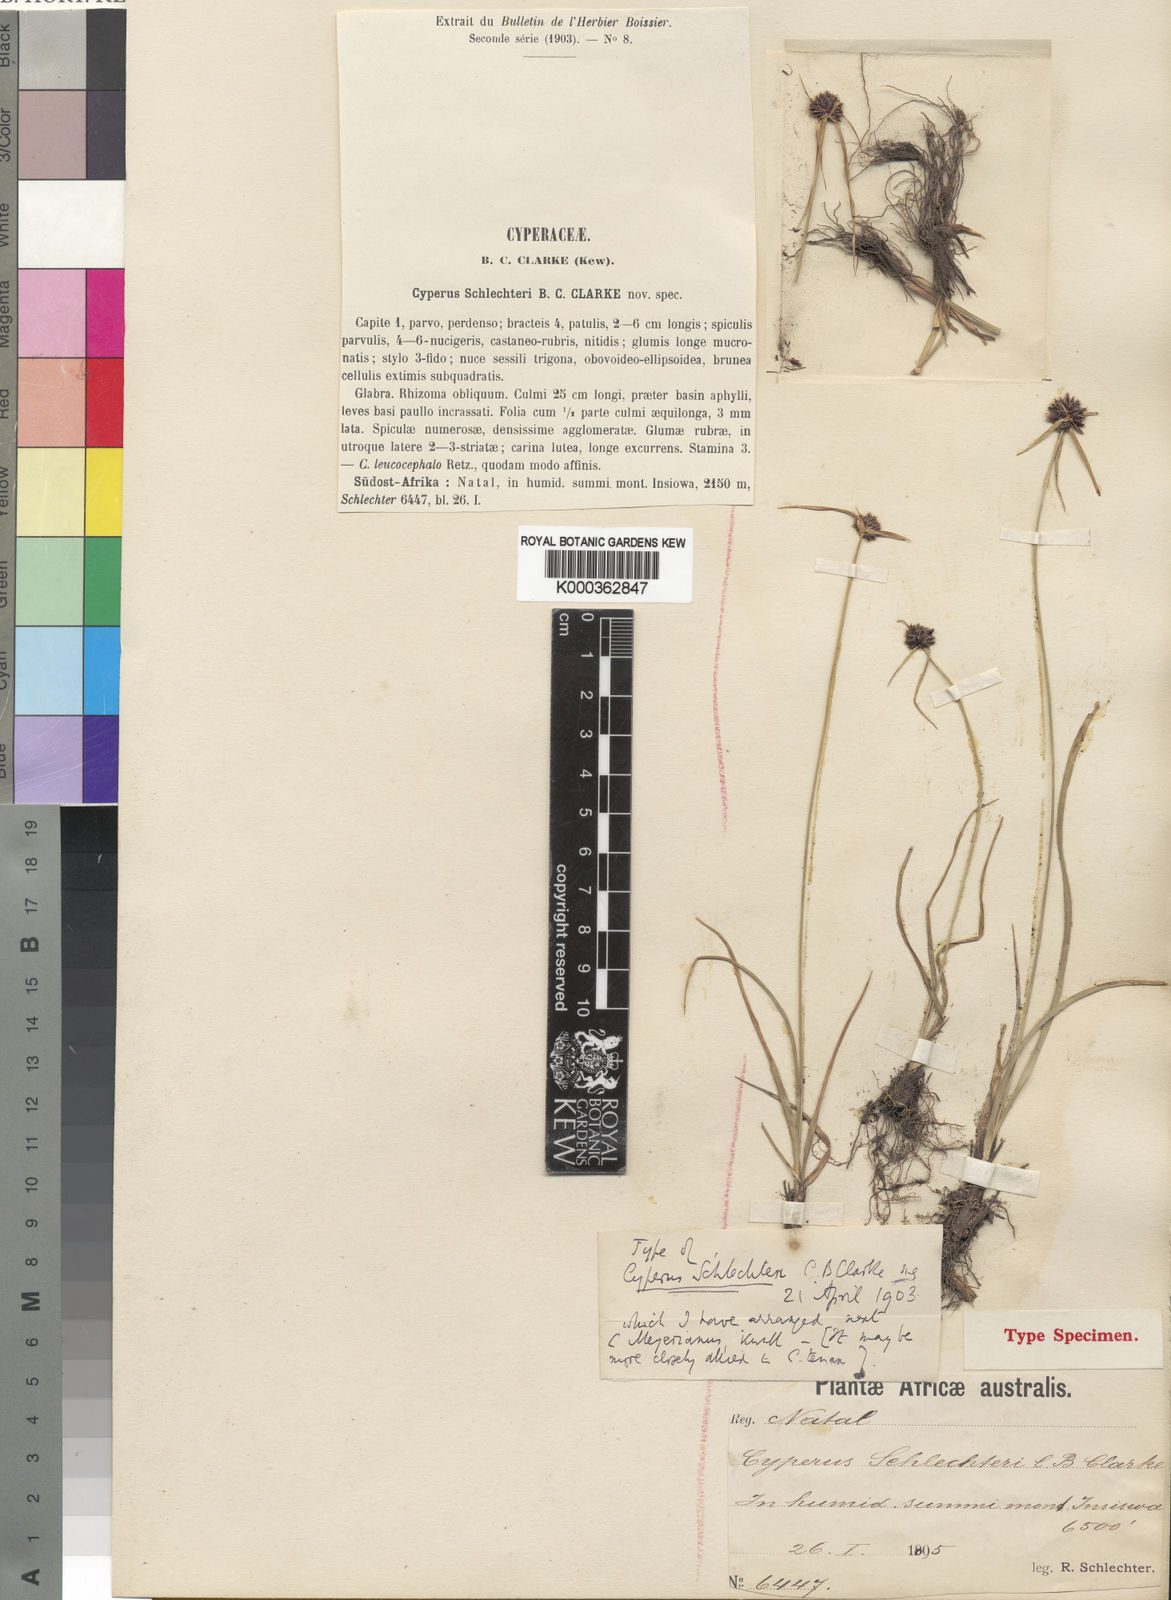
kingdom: Plantae
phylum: Tracheophyta
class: Liliopsida
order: Poales
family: Cyperaceae
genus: Cyperus
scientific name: Cyperus schlechteri
